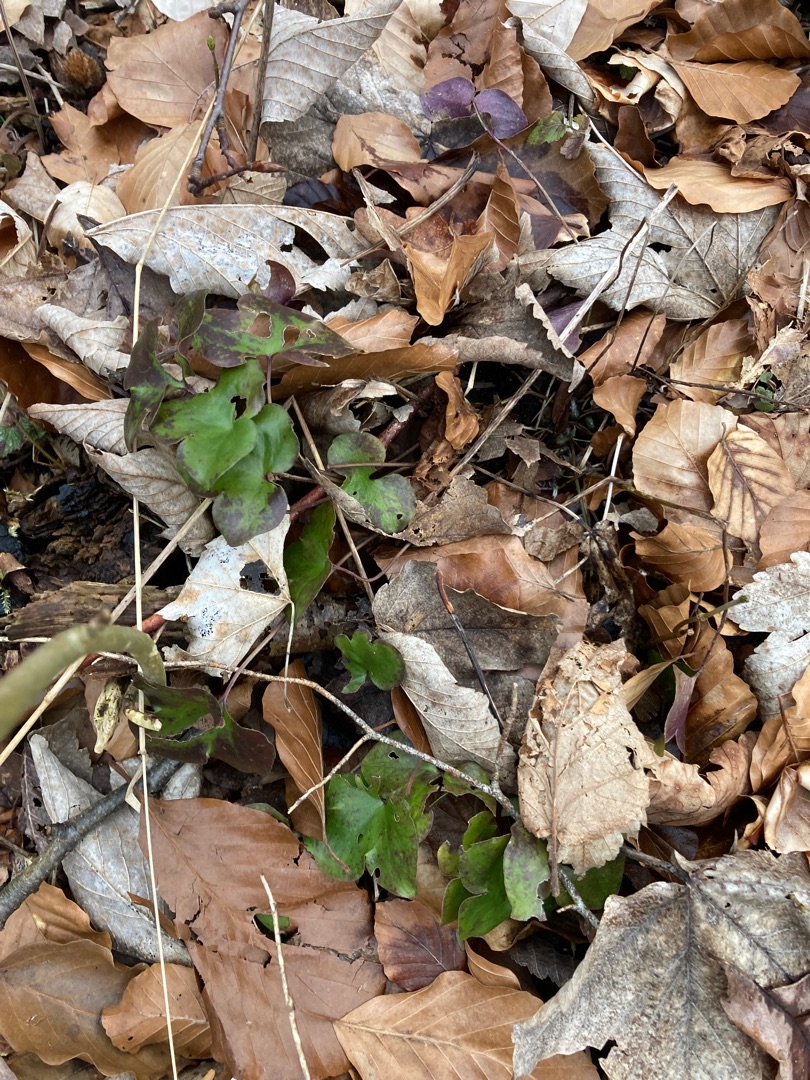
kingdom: Plantae
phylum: Tracheophyta
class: Magnoliopsida
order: Ranunculales
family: Ranunculaceae
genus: Hepatica
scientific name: Hepatica nobilis
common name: Blå anemone
